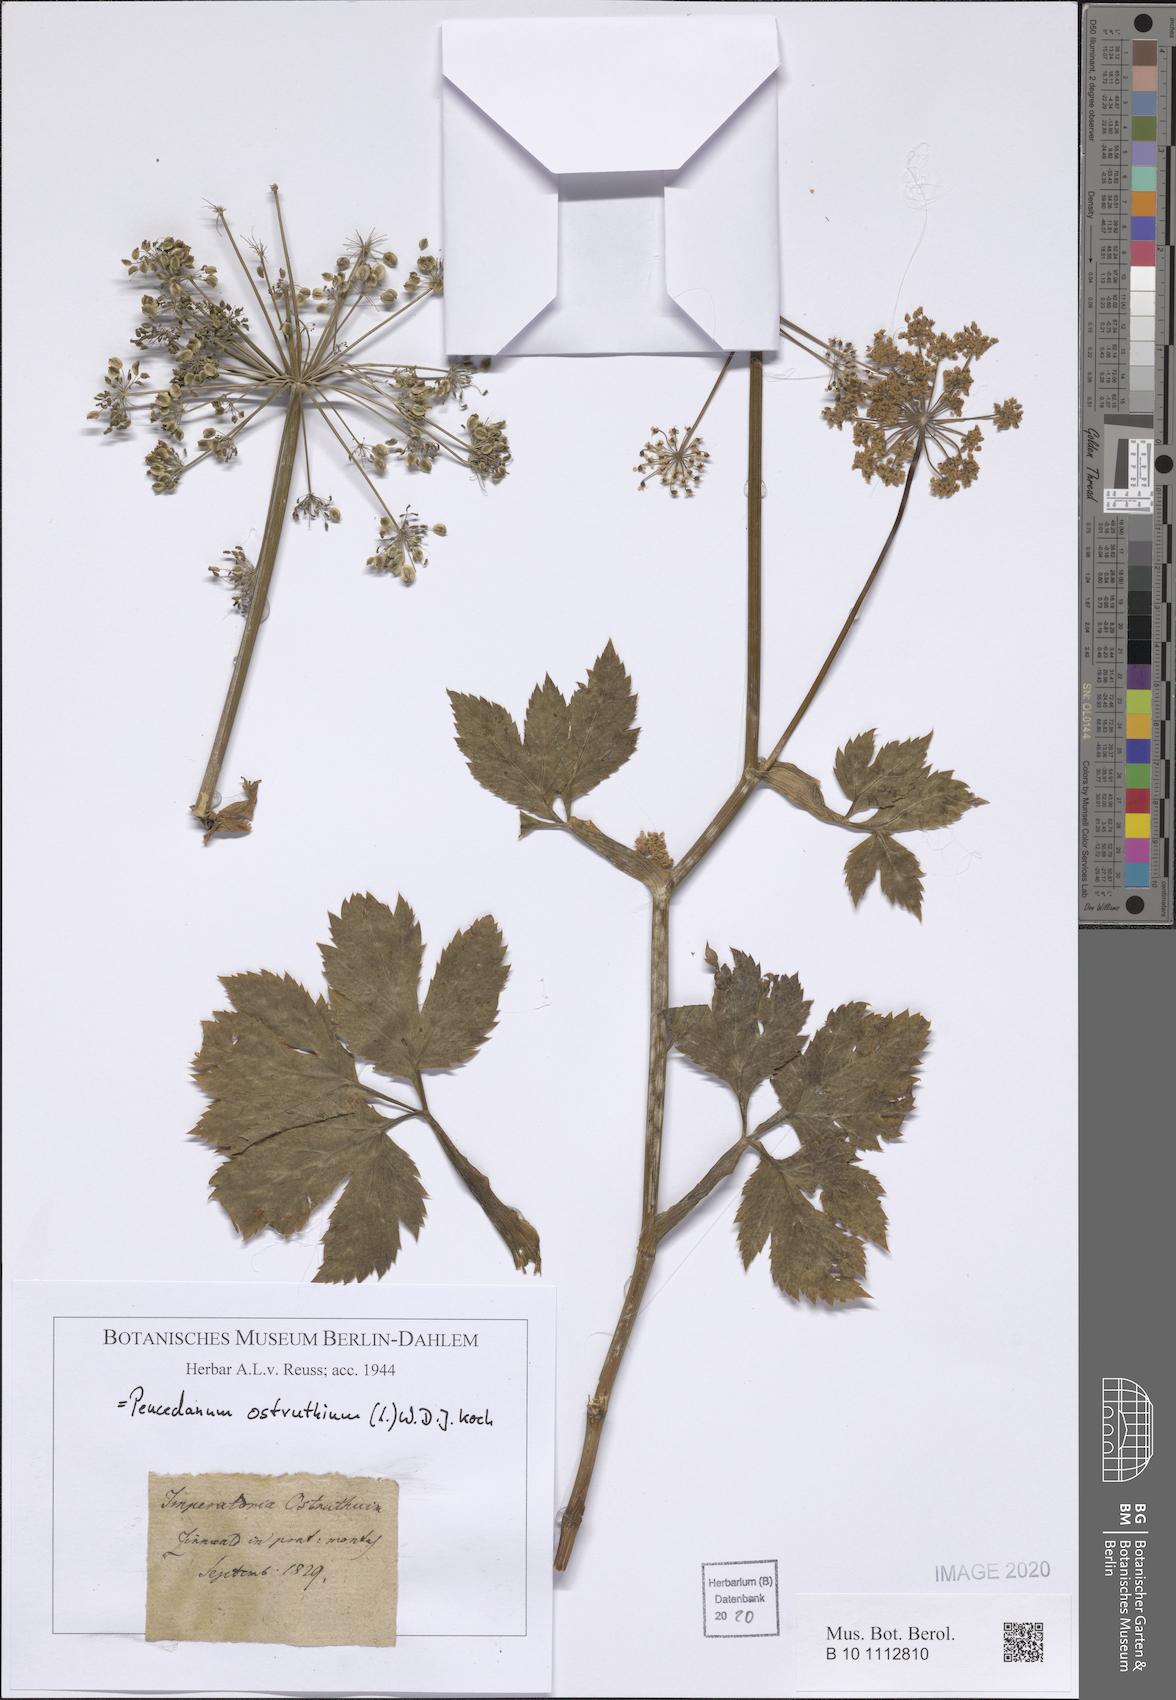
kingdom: Plantae
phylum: Tracheophyta
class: Magnoliopsida
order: Apiales
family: Apiaceae
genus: Imperatoria
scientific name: Imperatoria ostruthium
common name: Masterwort
